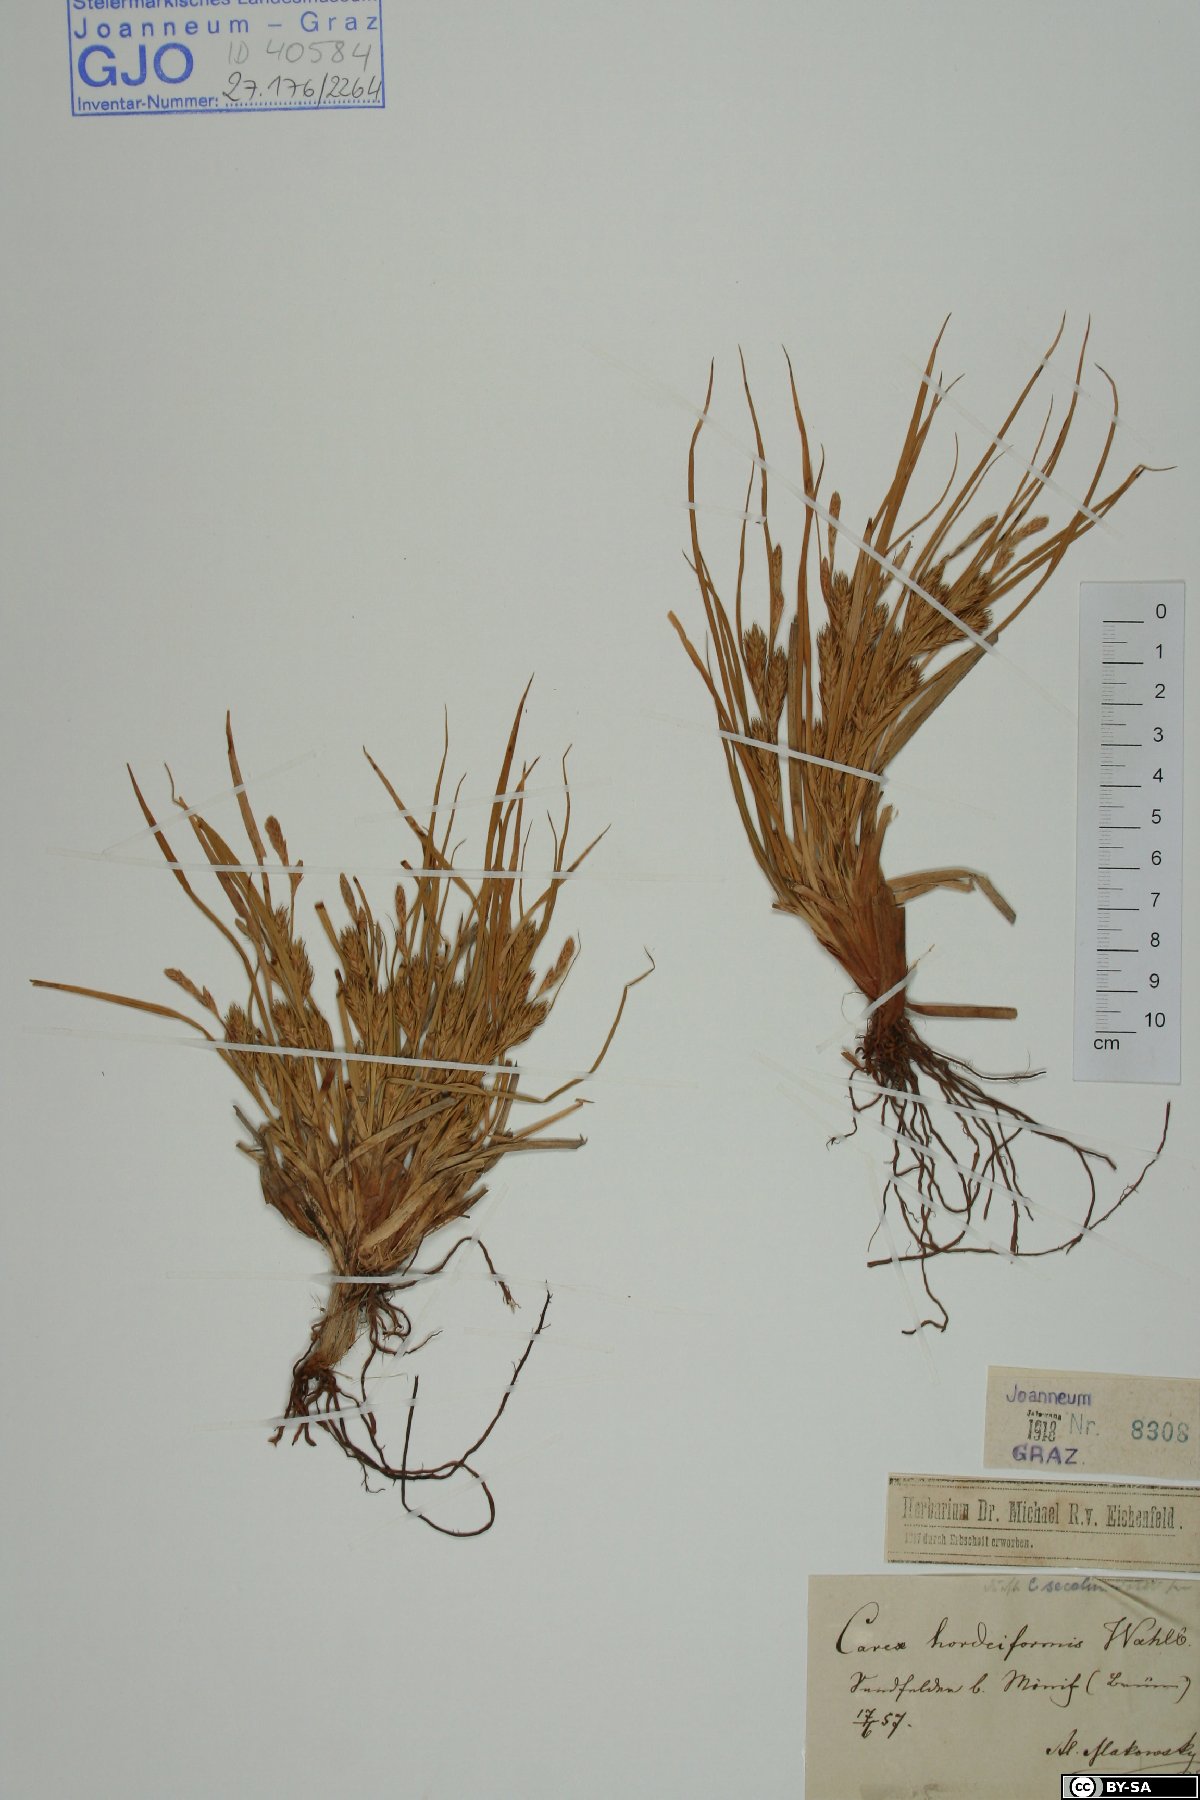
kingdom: Plantae
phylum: Tracheophyta
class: Liliopsida
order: Poales
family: Cyperaceae
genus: Carex
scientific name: Carex hordeistichos
